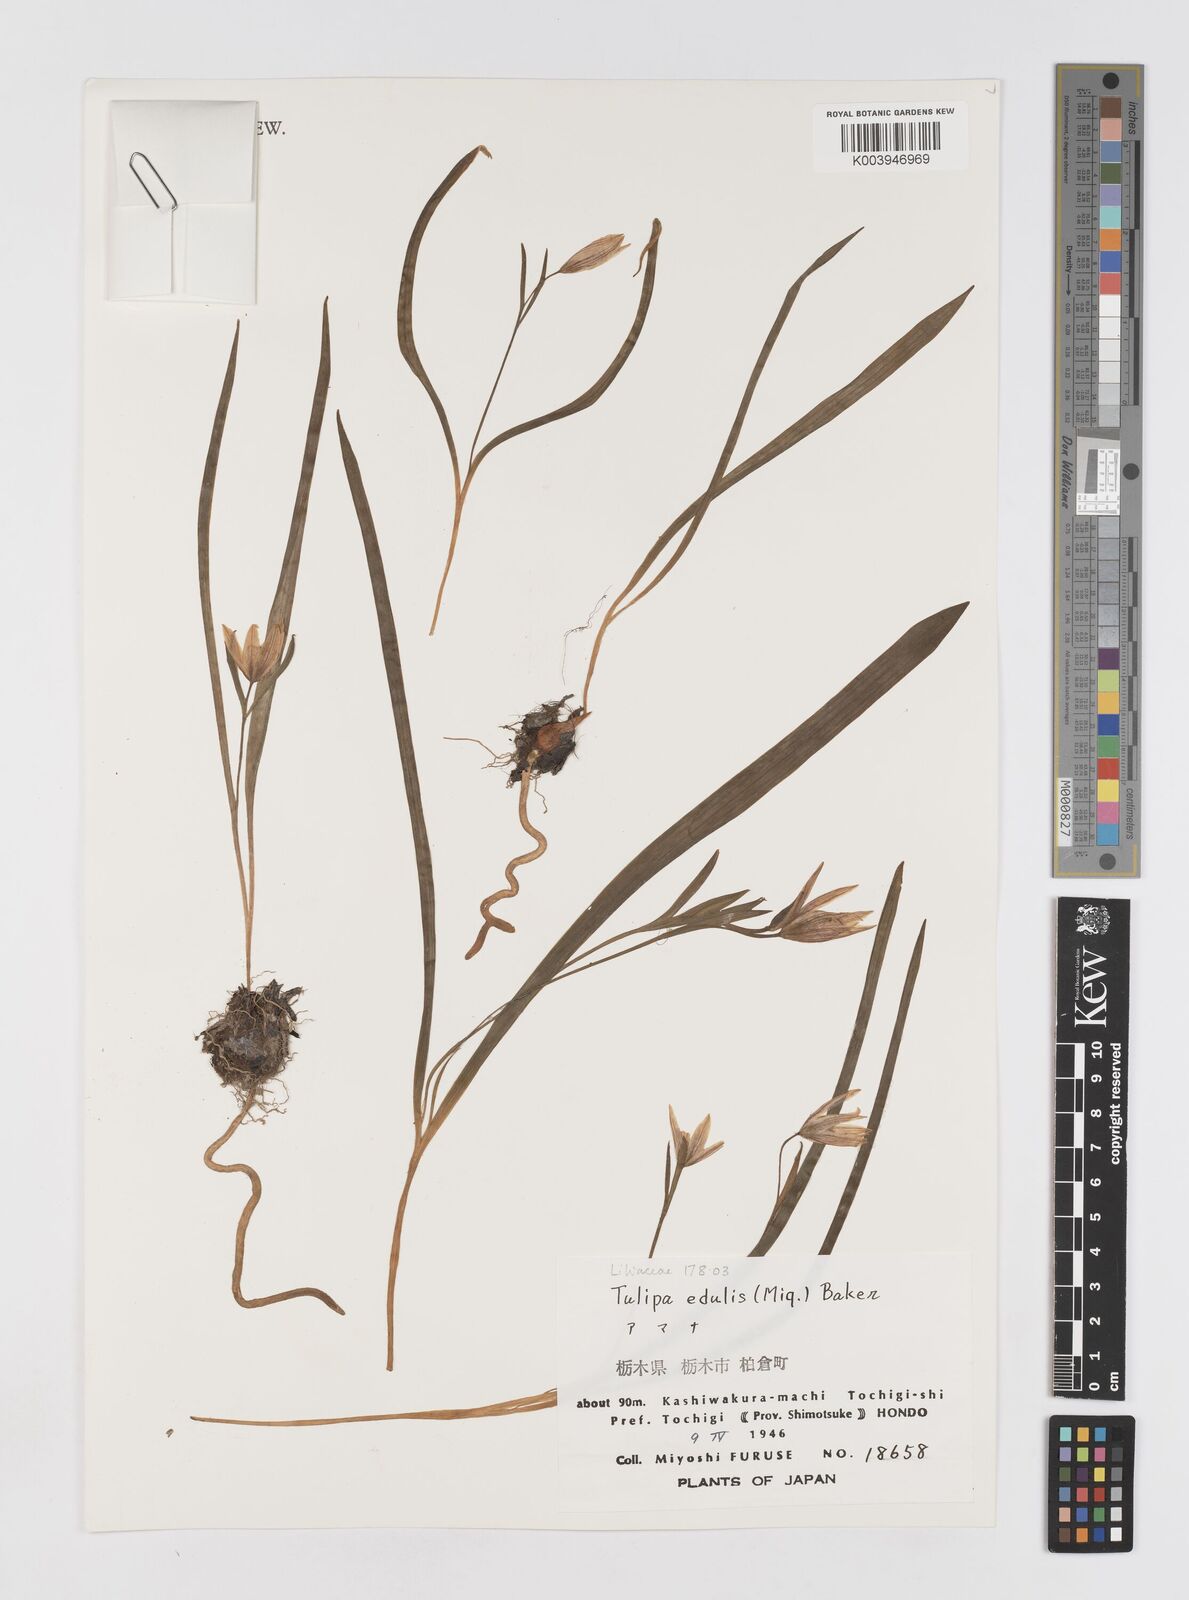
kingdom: Plantae
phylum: Tracheophyta
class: Liliopsida
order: Liliales
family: Liliaceae
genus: Amana
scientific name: Amana edulis
